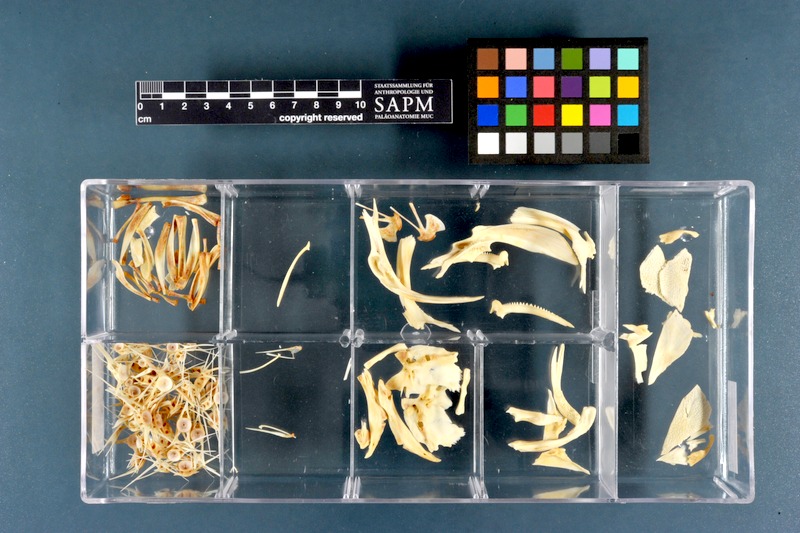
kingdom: Animalia
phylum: Chordata
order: Siluriformes
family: Clariidae
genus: Clarias
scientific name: Clarias gariepinus
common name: African catfish
